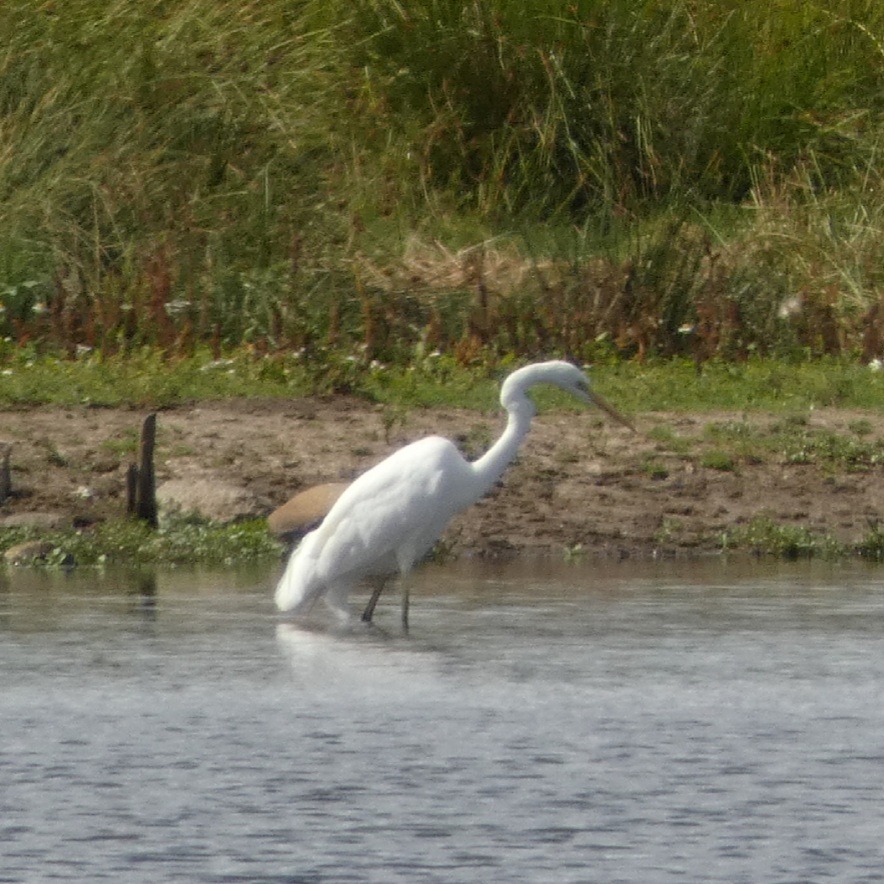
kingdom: Animalia
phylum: Chordata
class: Aves
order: Pelecaniformes
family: Ardeidae
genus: Ardea
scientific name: Ardea alba
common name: Sølvhejre
